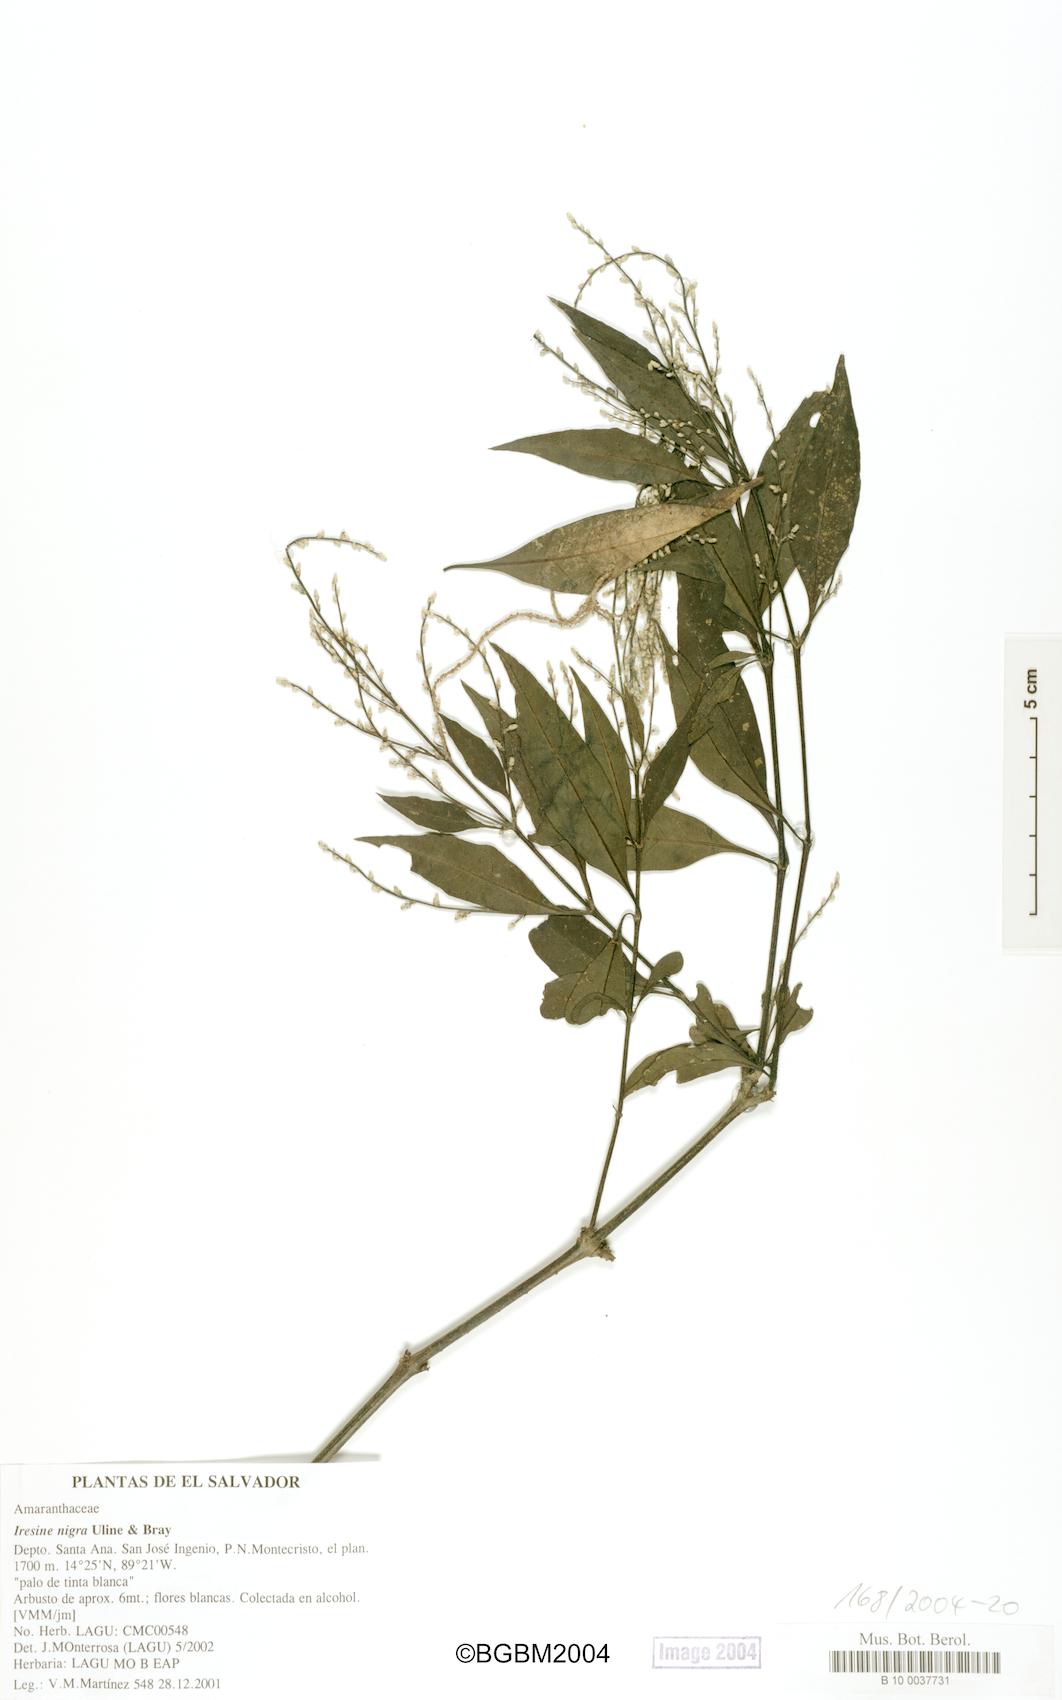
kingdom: Plantae
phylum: Tracheophyta
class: Magnoliopsida
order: Caryophyllales
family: Amaranthaceae
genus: Iresine
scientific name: Iresine nigra
